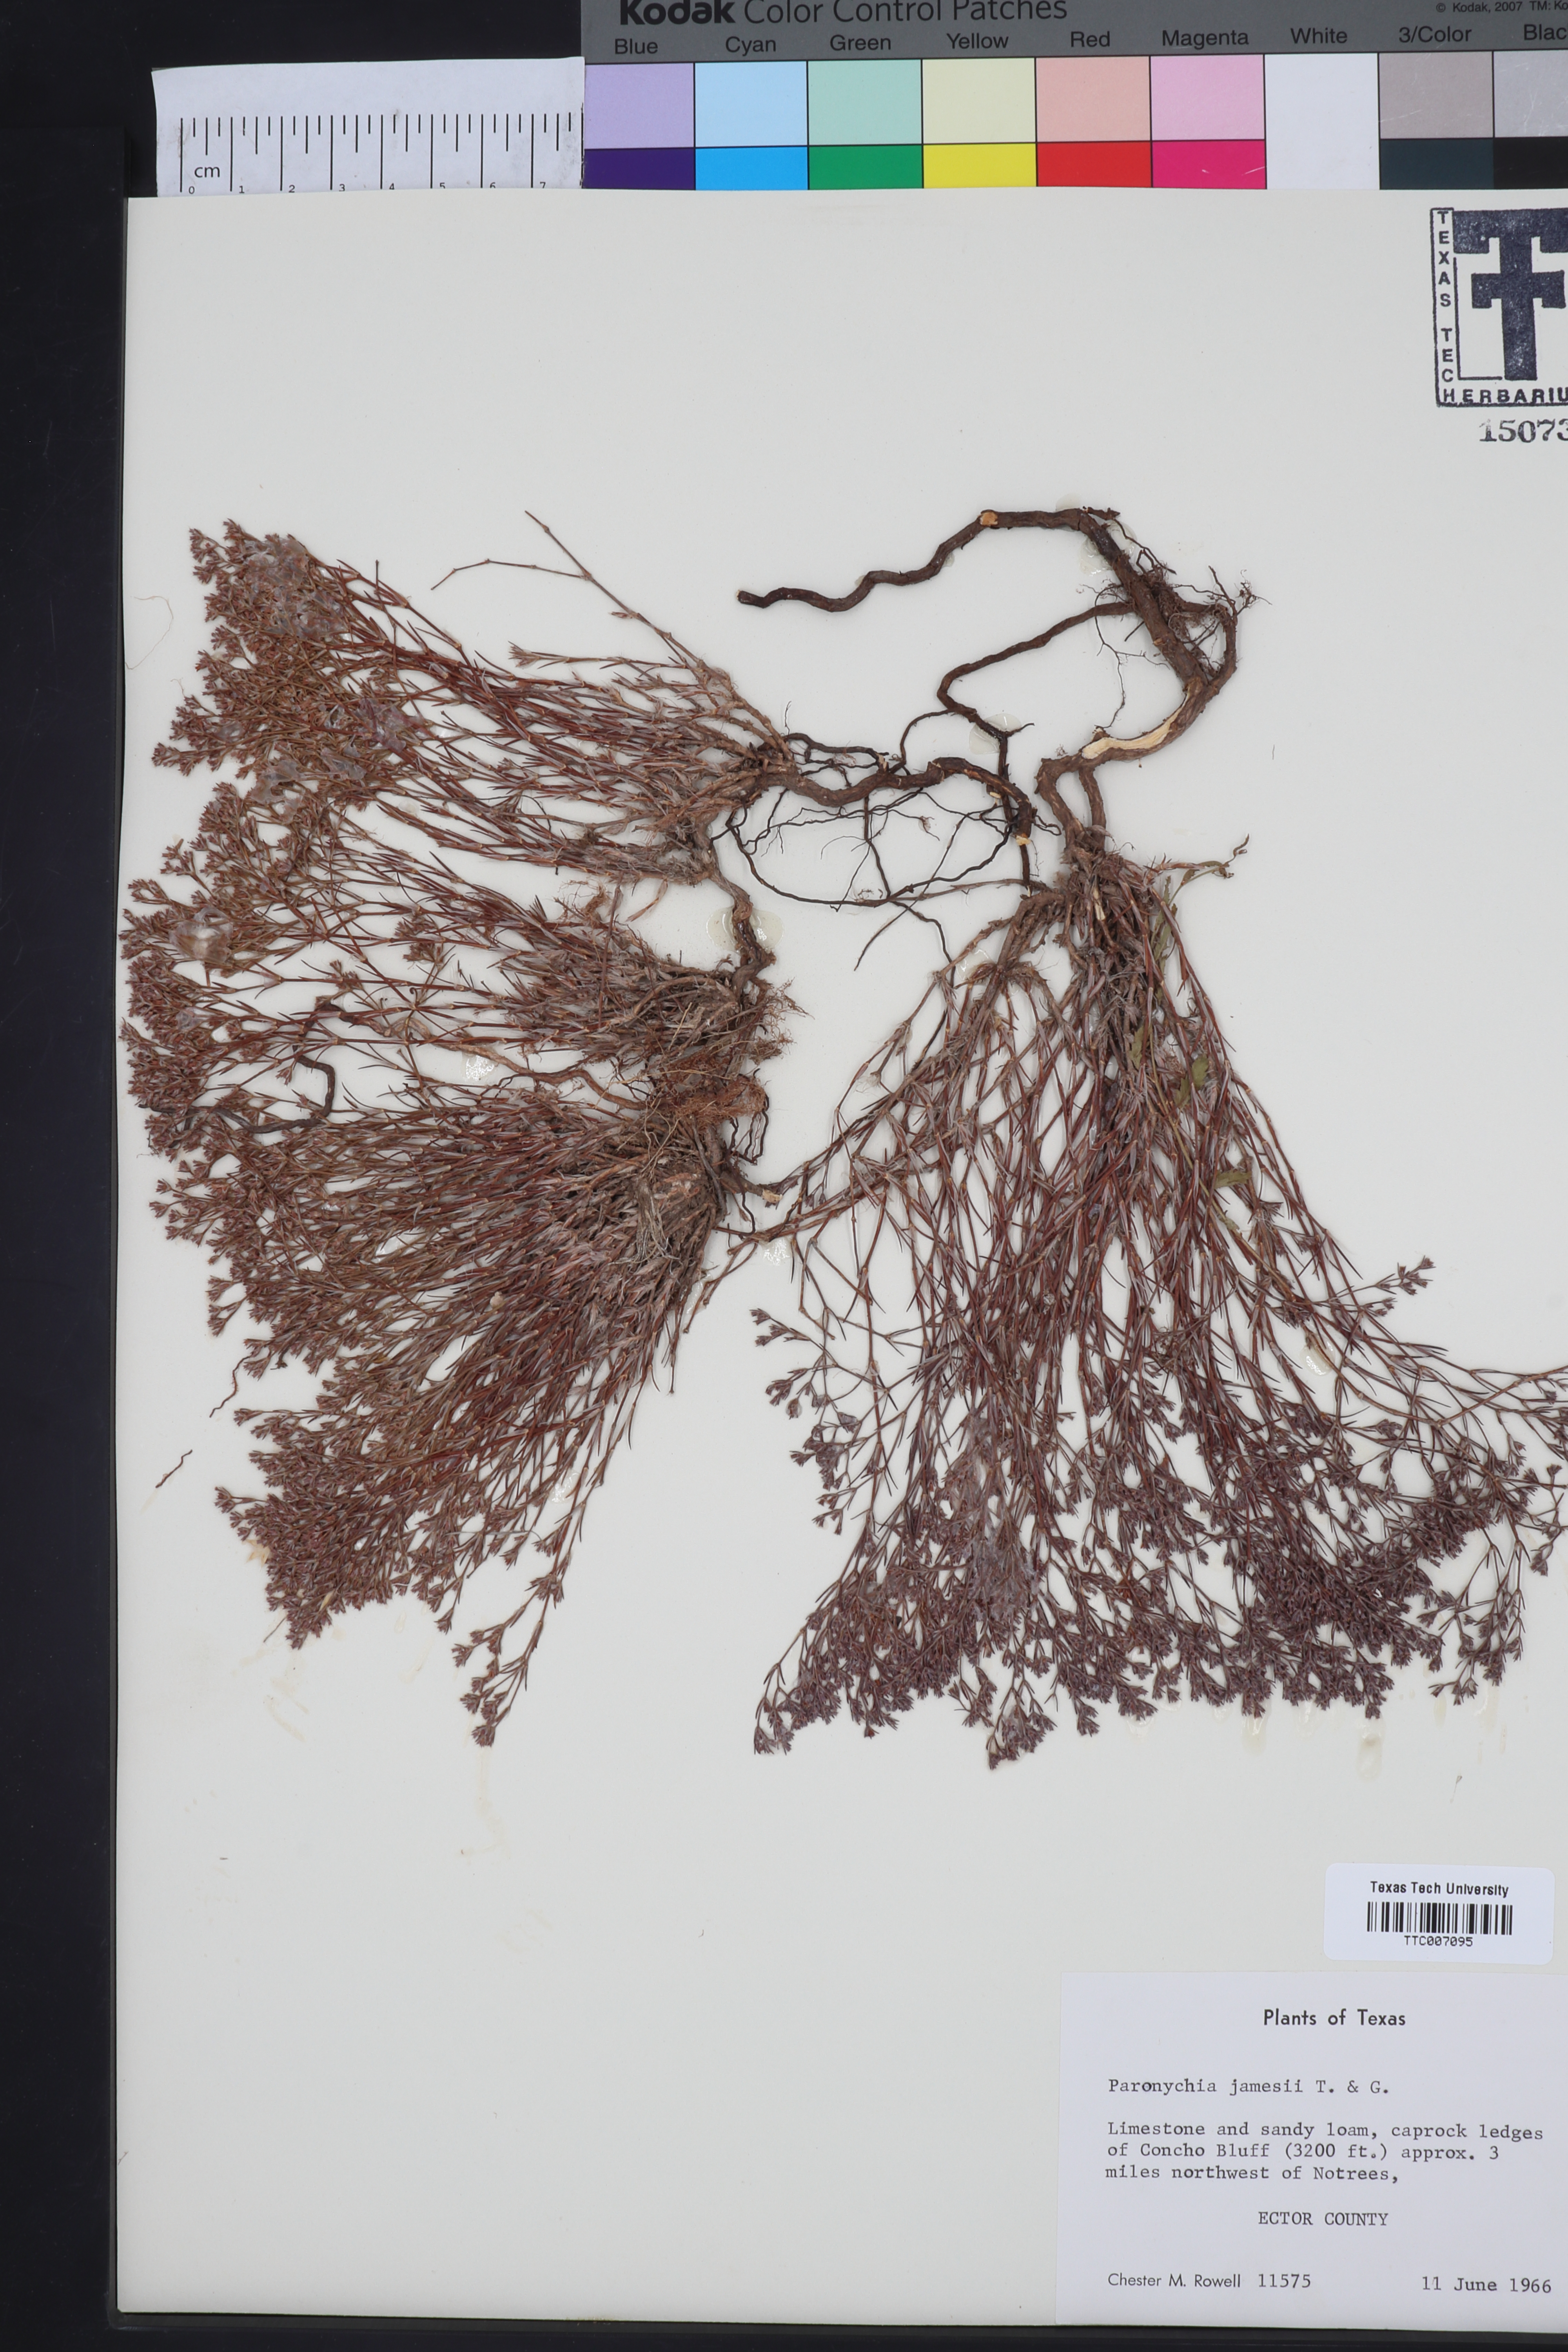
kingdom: Plantae
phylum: Tracheophyta
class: Magnoliopsida
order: Caryophyllales
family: Caryophyllaceae
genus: Paronychia
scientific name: Paronychia jamesii
